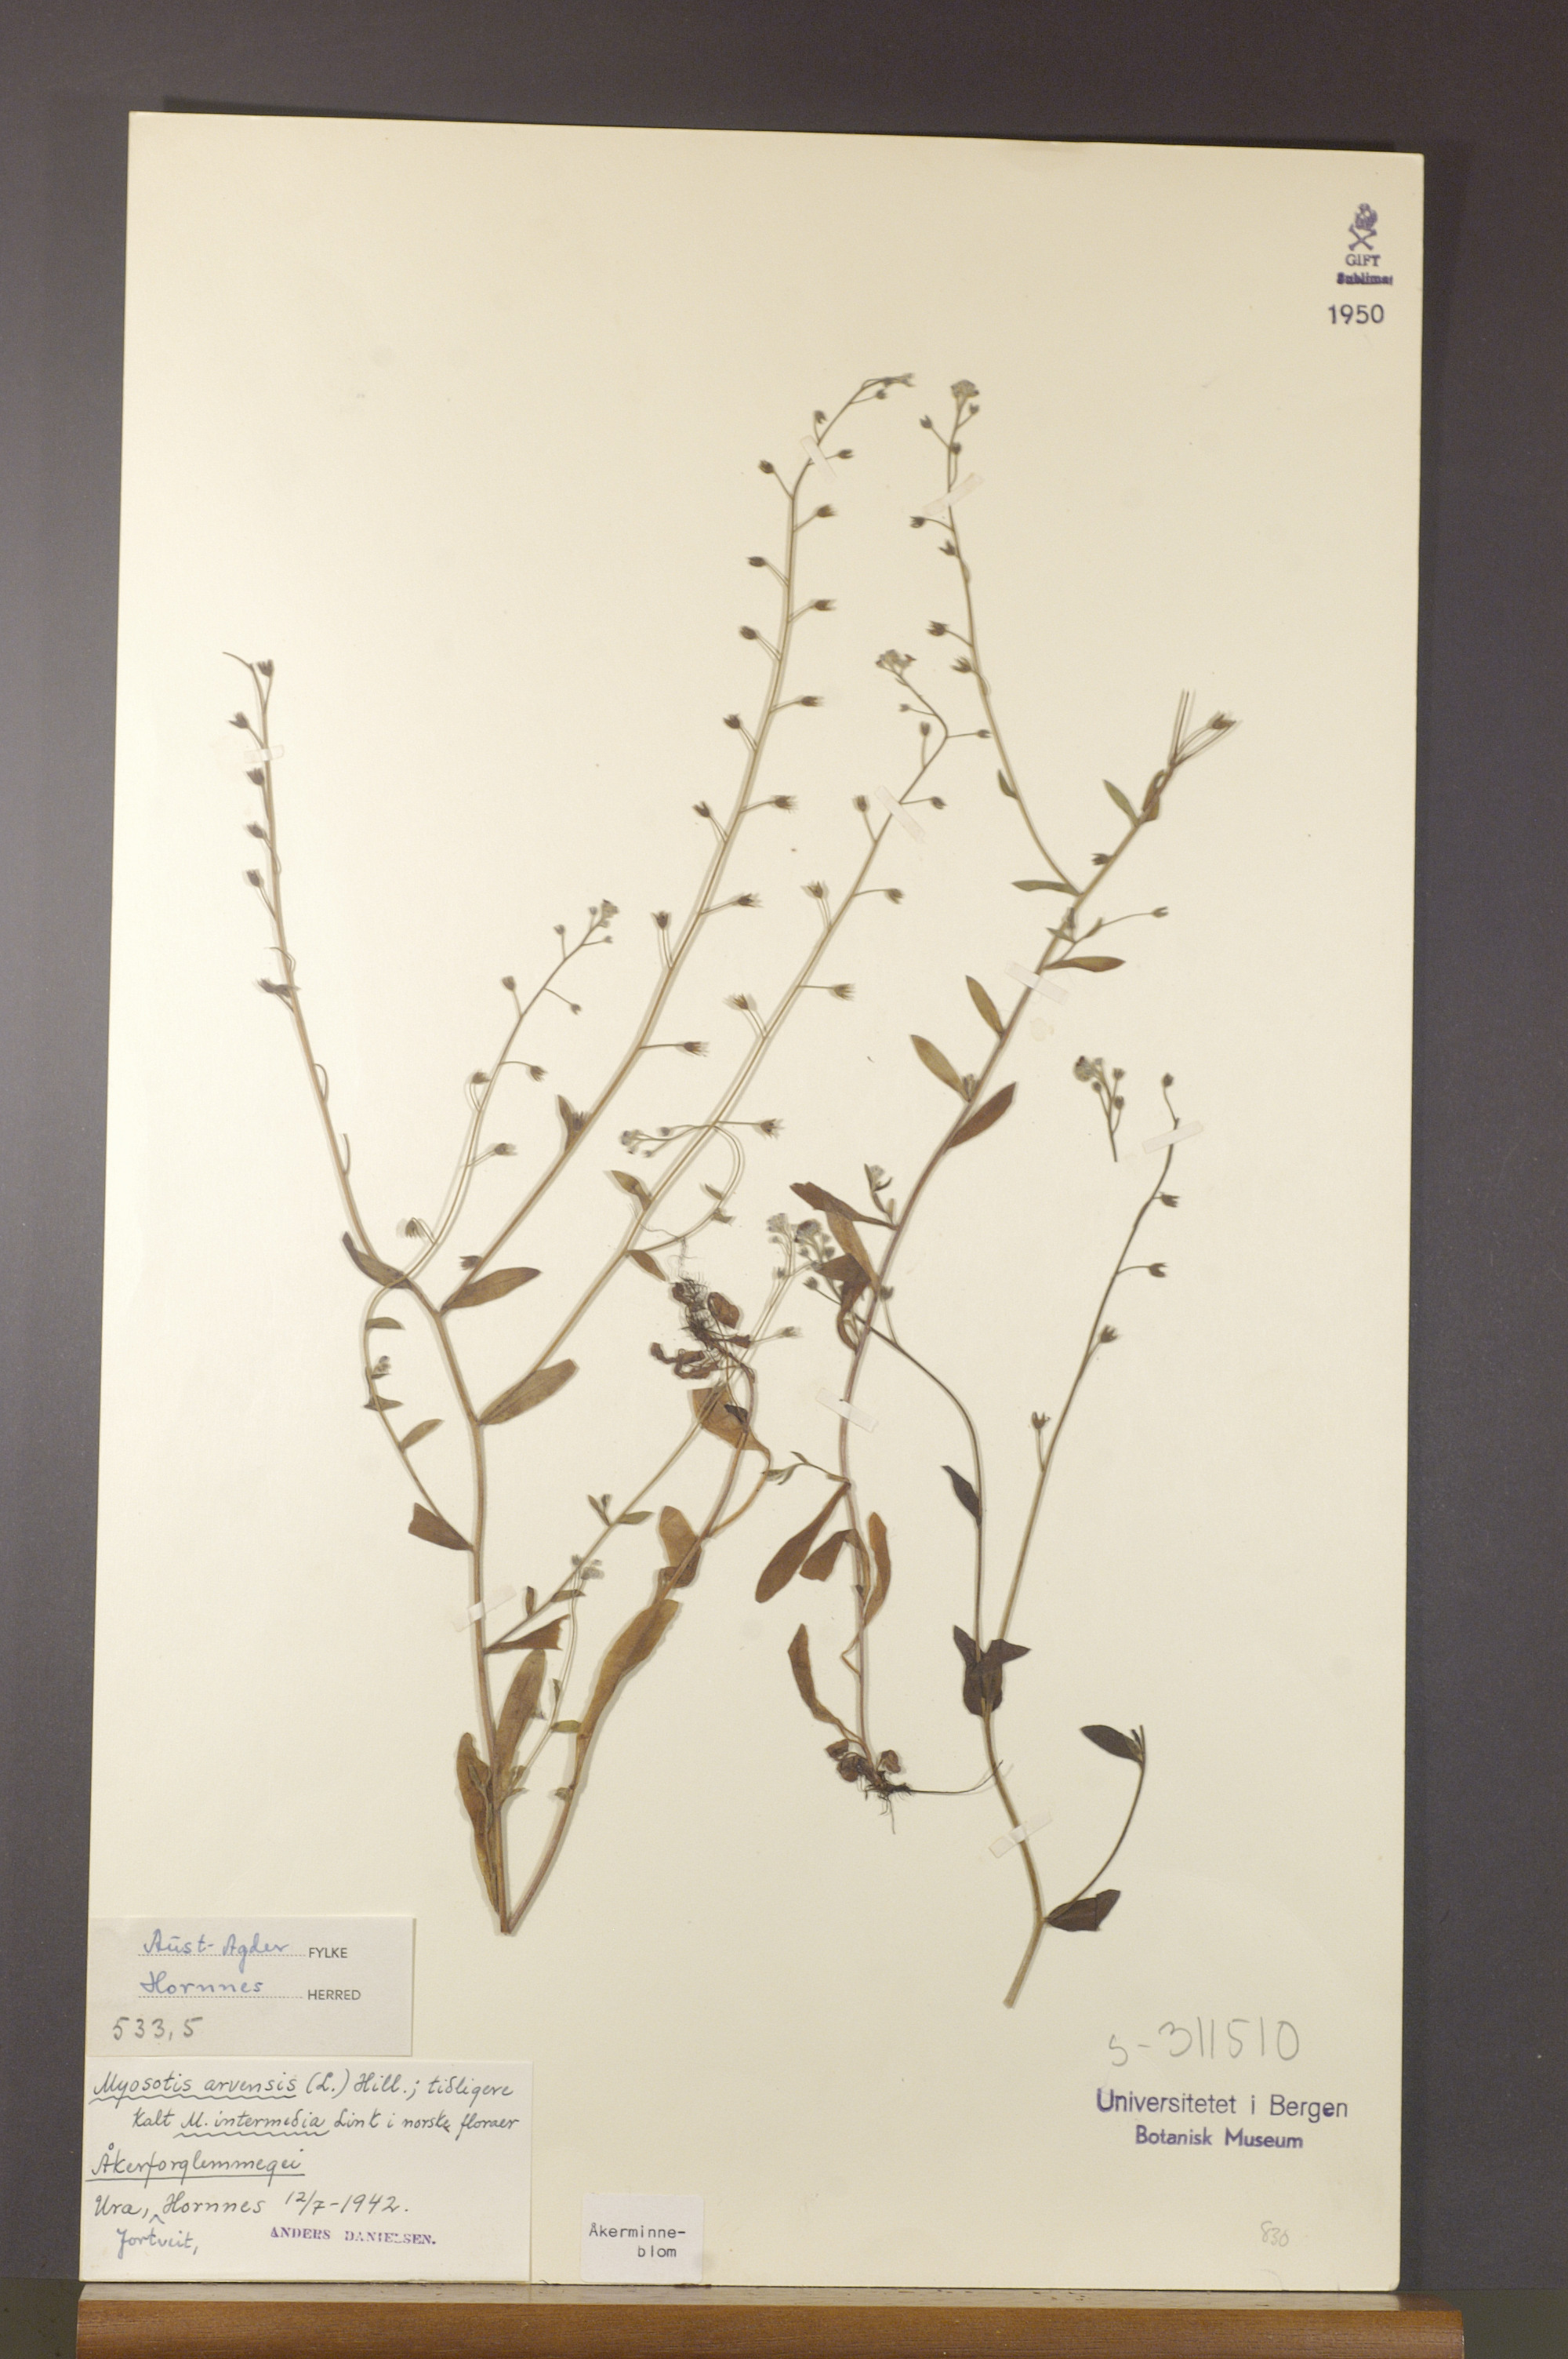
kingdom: Plantae
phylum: Tracheophyta
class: Magnoliopsida
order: Boraginales
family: Boraginaceae
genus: Myosotis
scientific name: Myosotis arvensis
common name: Field forget-me-not
